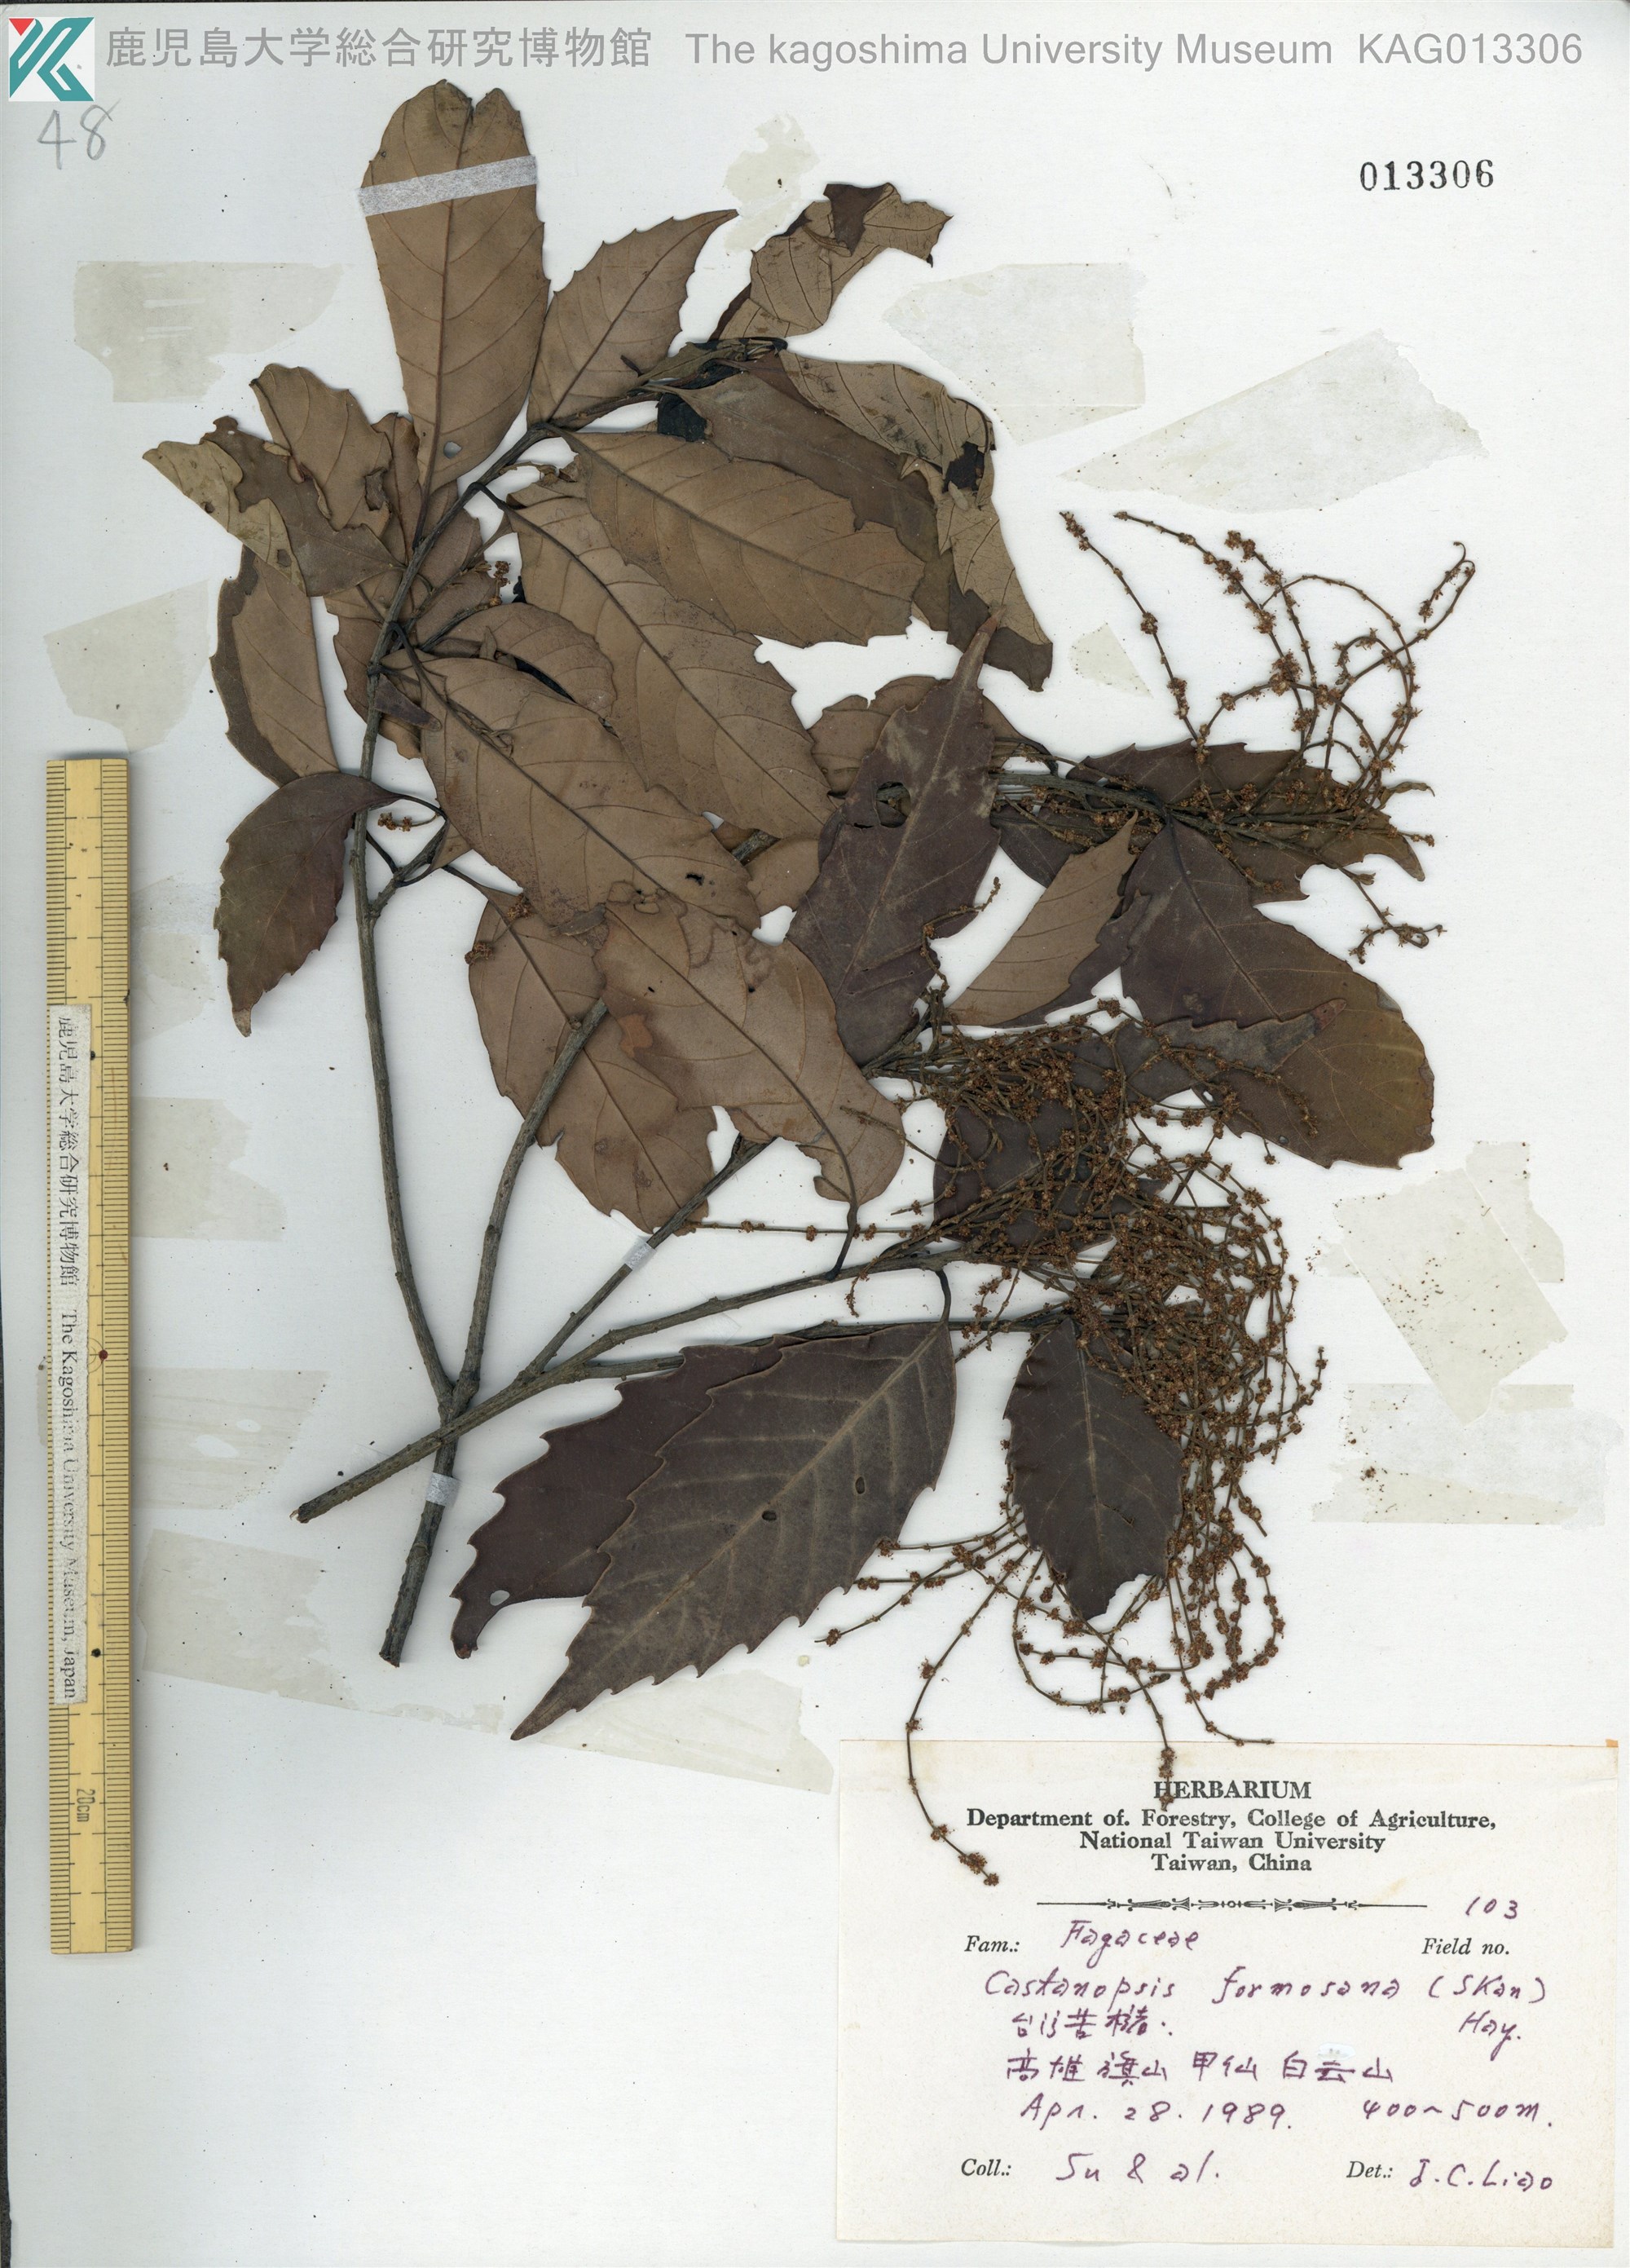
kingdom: Plantae
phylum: Tracheophyta
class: Magnoliopsida
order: Fagales
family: Fagaceae
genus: Castanopsis
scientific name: Castanopsis formosana
